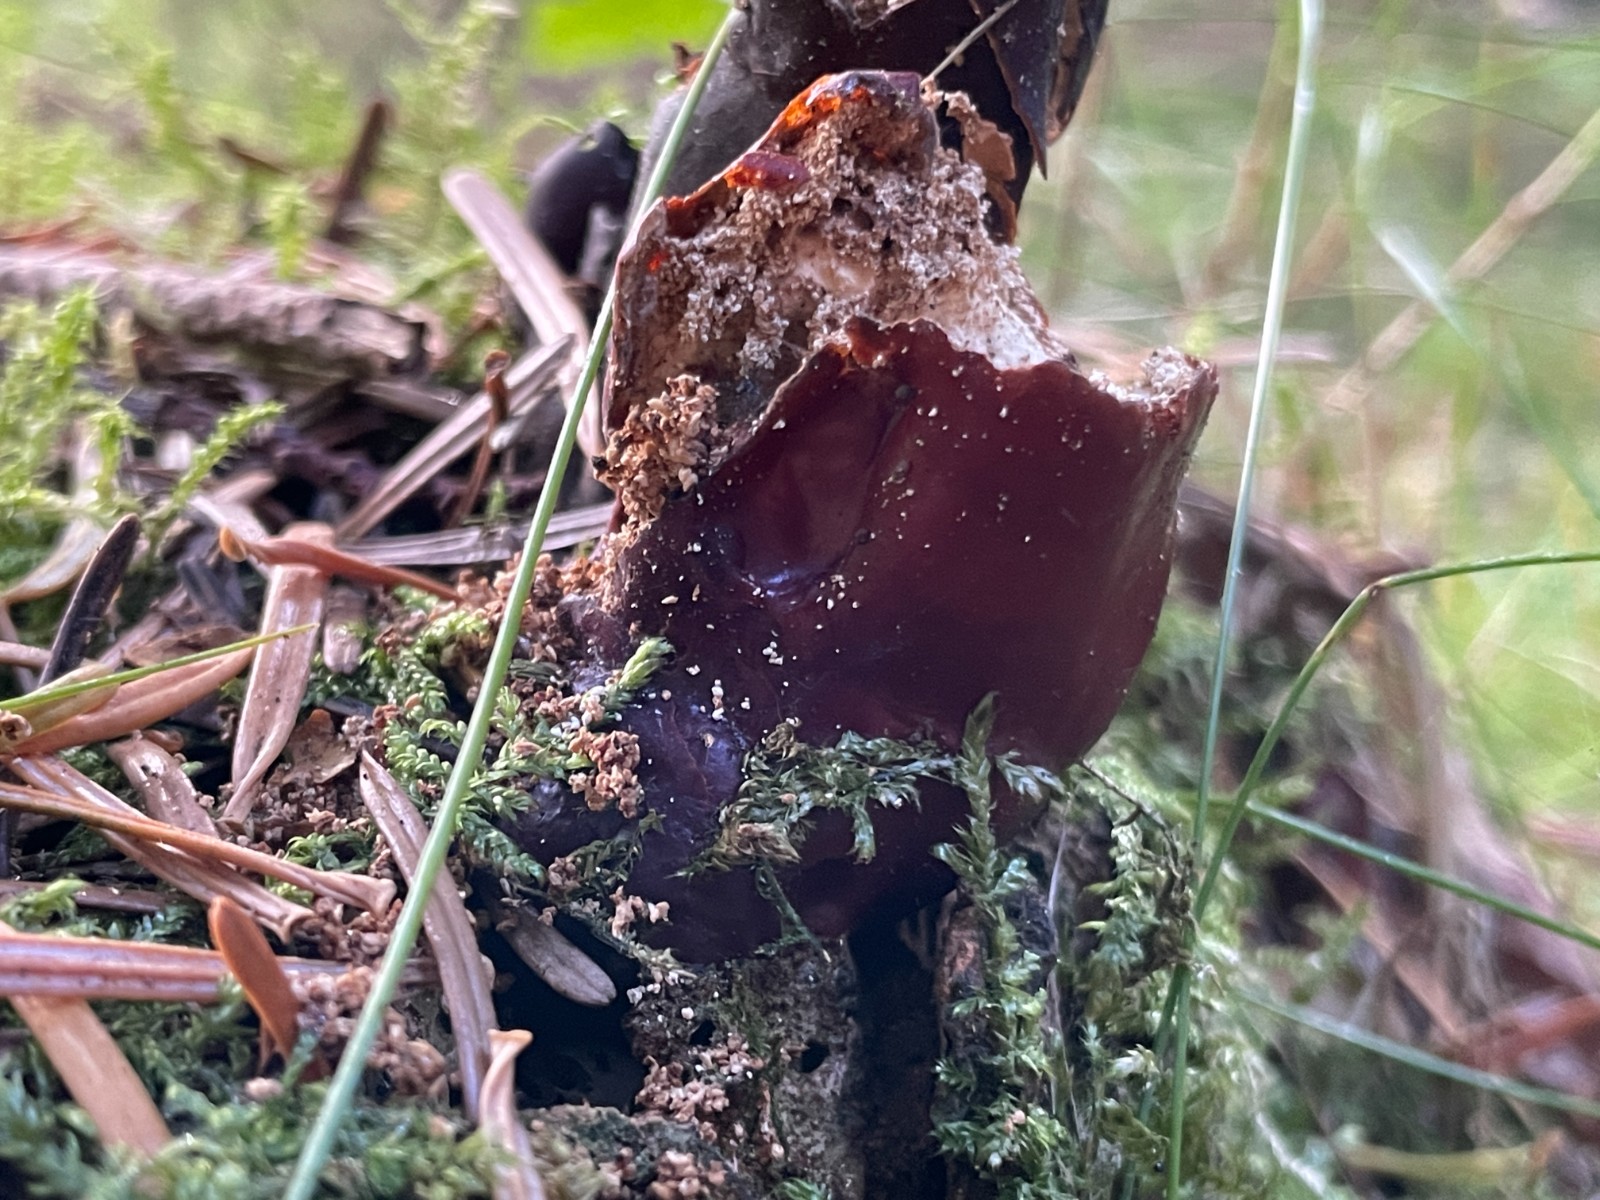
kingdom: Fungi
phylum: Basidiomycota
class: Agaricomycetes
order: Polyporales
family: Polyporaceae
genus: Ganoderma
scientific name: Ganoderma lucidum
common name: skinnende lakporesvamp
